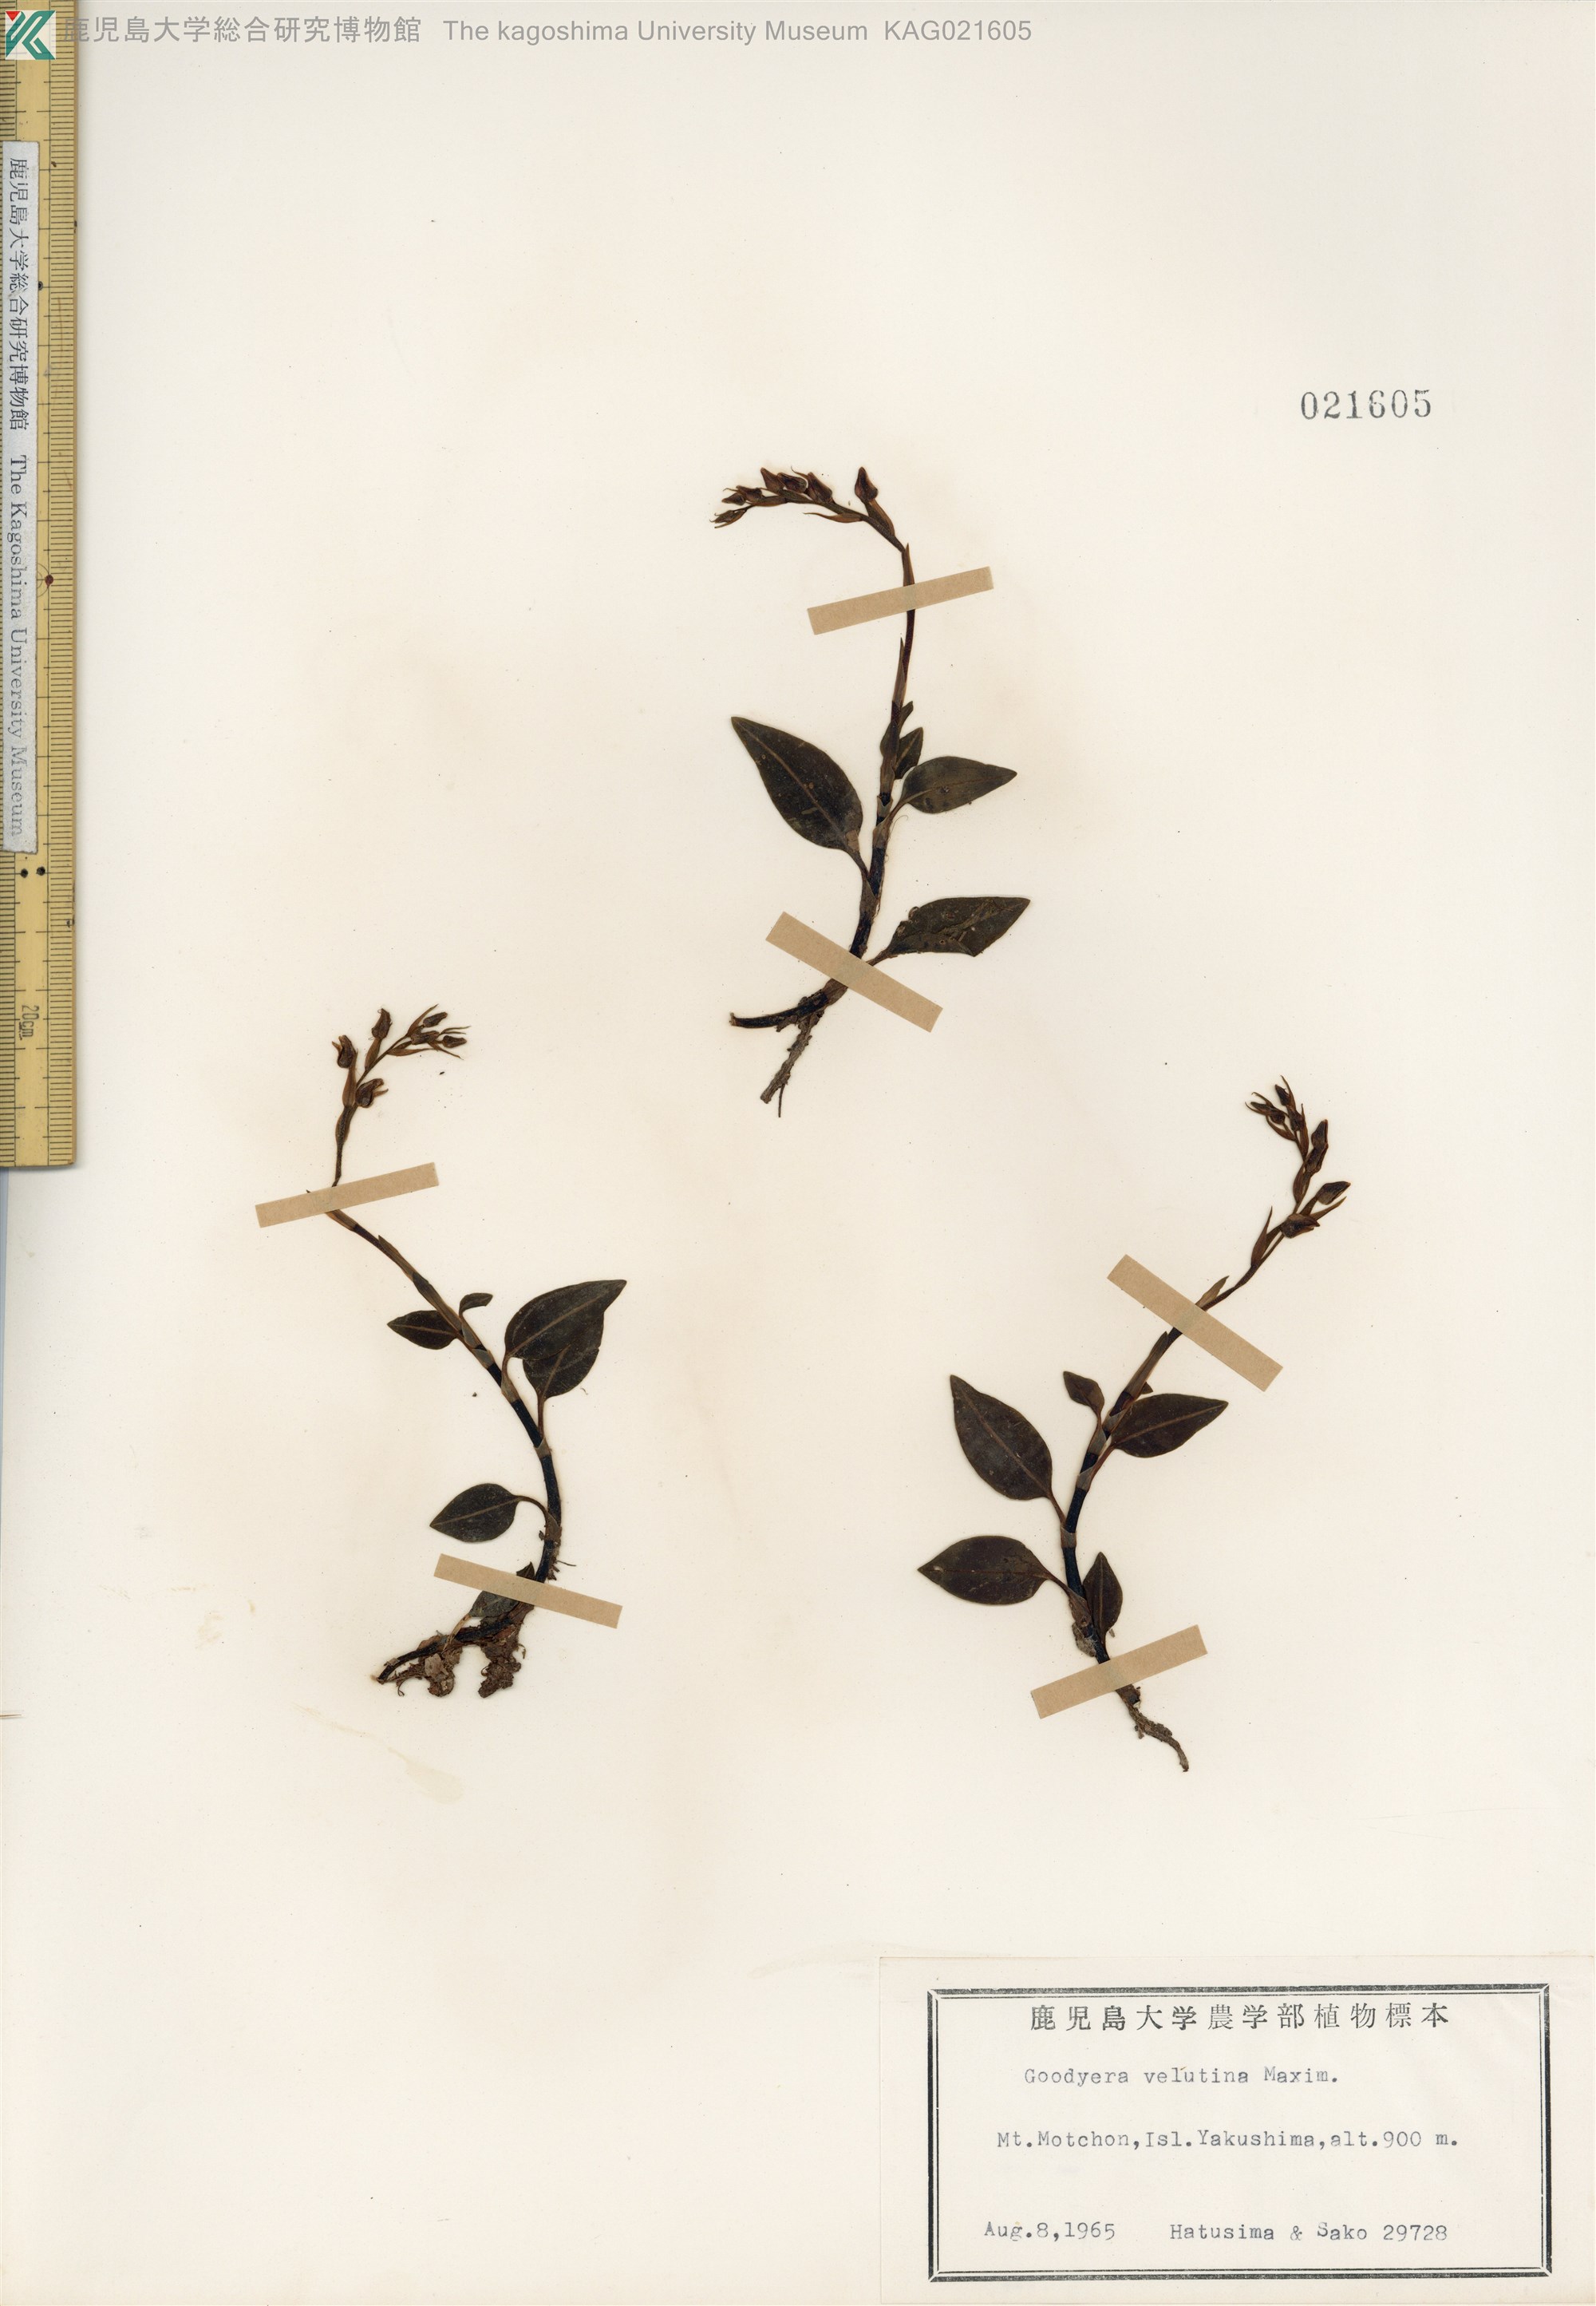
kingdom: Plantae
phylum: Tracheophyta
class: Liliopsida
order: Asparagales
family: Orchidaceae
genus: Goodyera
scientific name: Goodyera velutina
